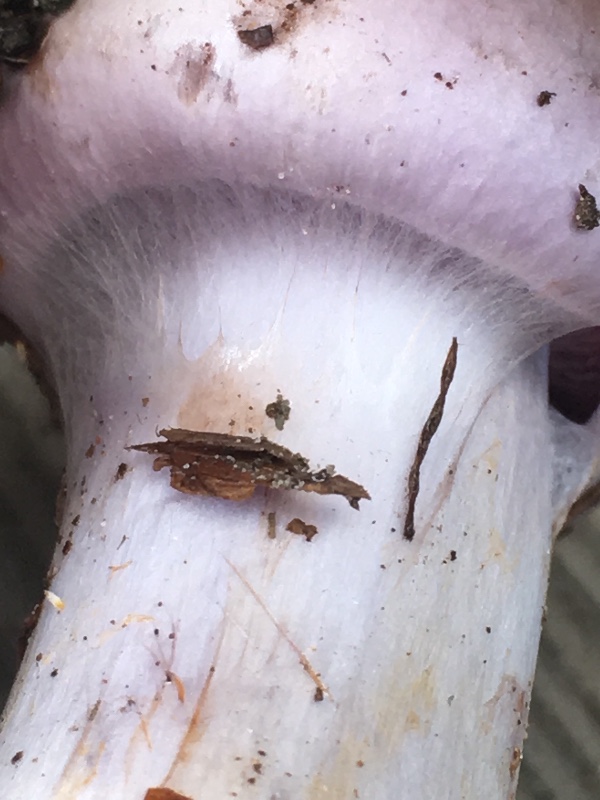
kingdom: Fungi
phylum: Basidiomycota
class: Agaricomycetes
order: Agaricales
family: Cortinariaceae
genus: Cortinarius
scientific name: Cortinarius largus
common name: violetrandet slørhat
